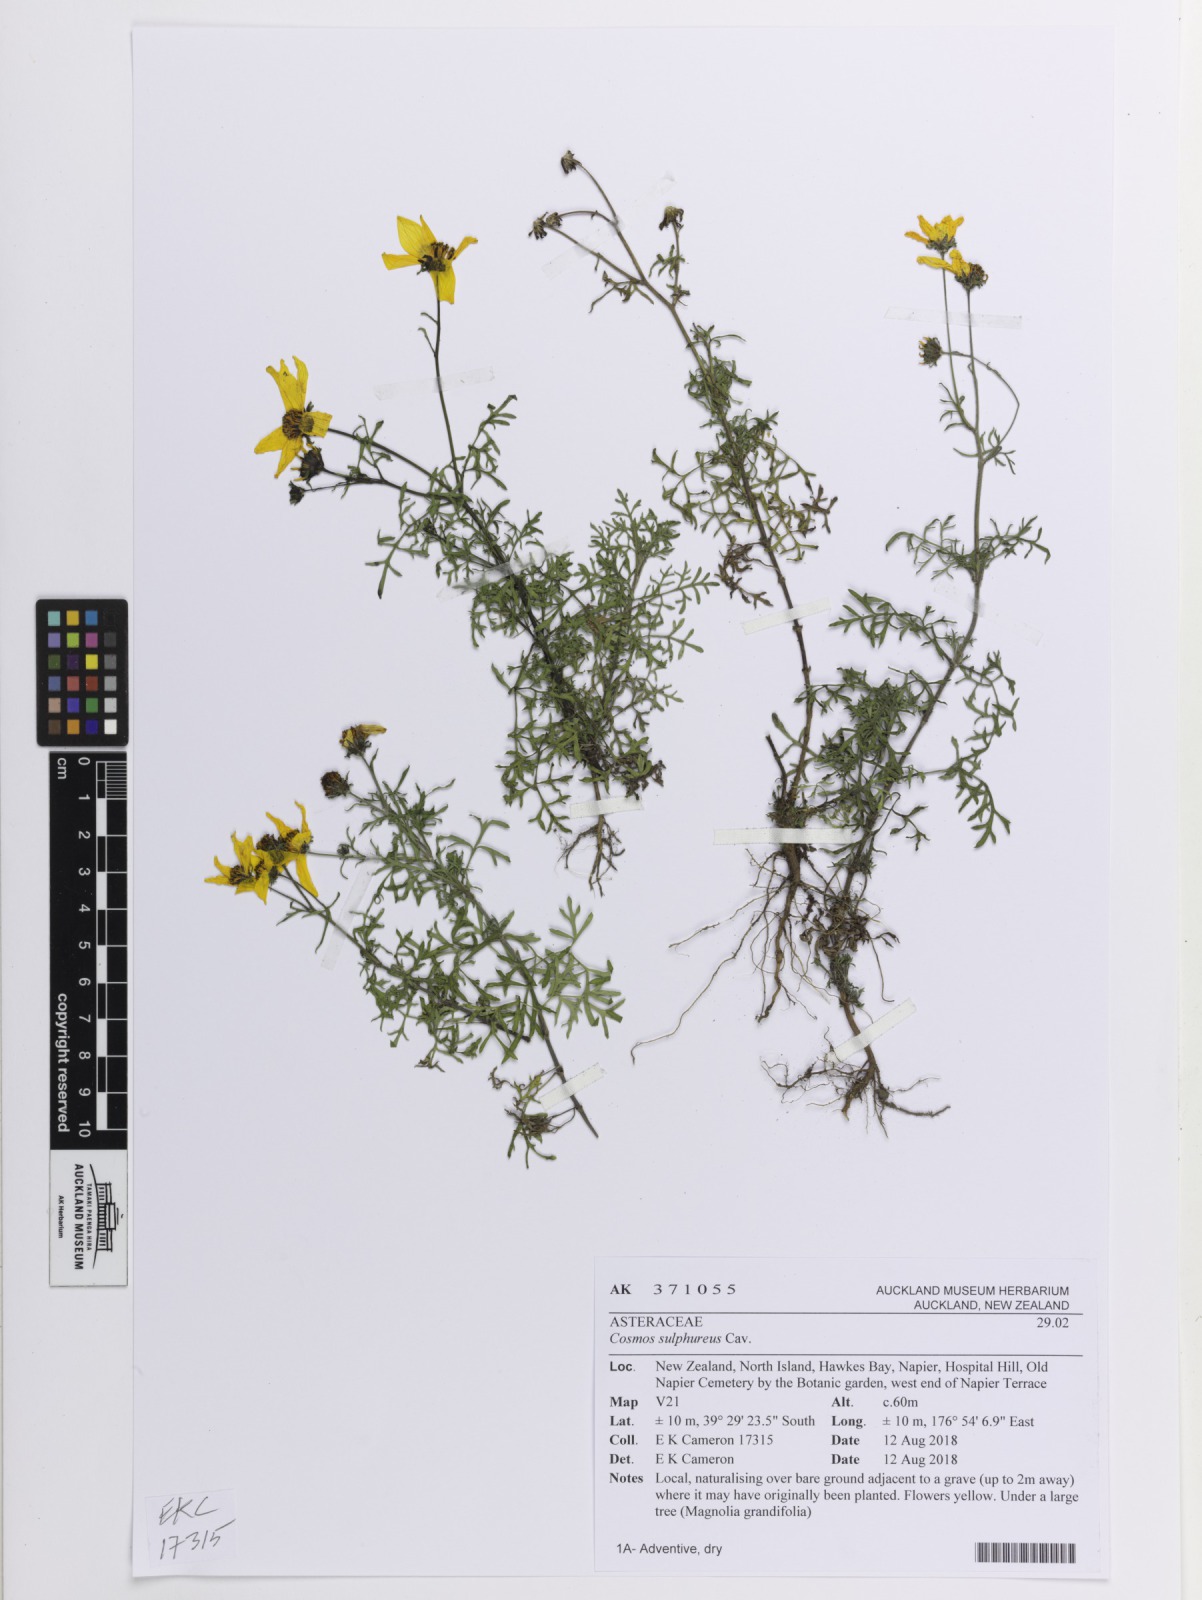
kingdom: Plantae
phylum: Tracheophyta
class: Magnoliopsida
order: Asterales
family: Asteraceae
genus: Cosmos
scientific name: Cosmos sulphureus
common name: Sulphur cosmos
